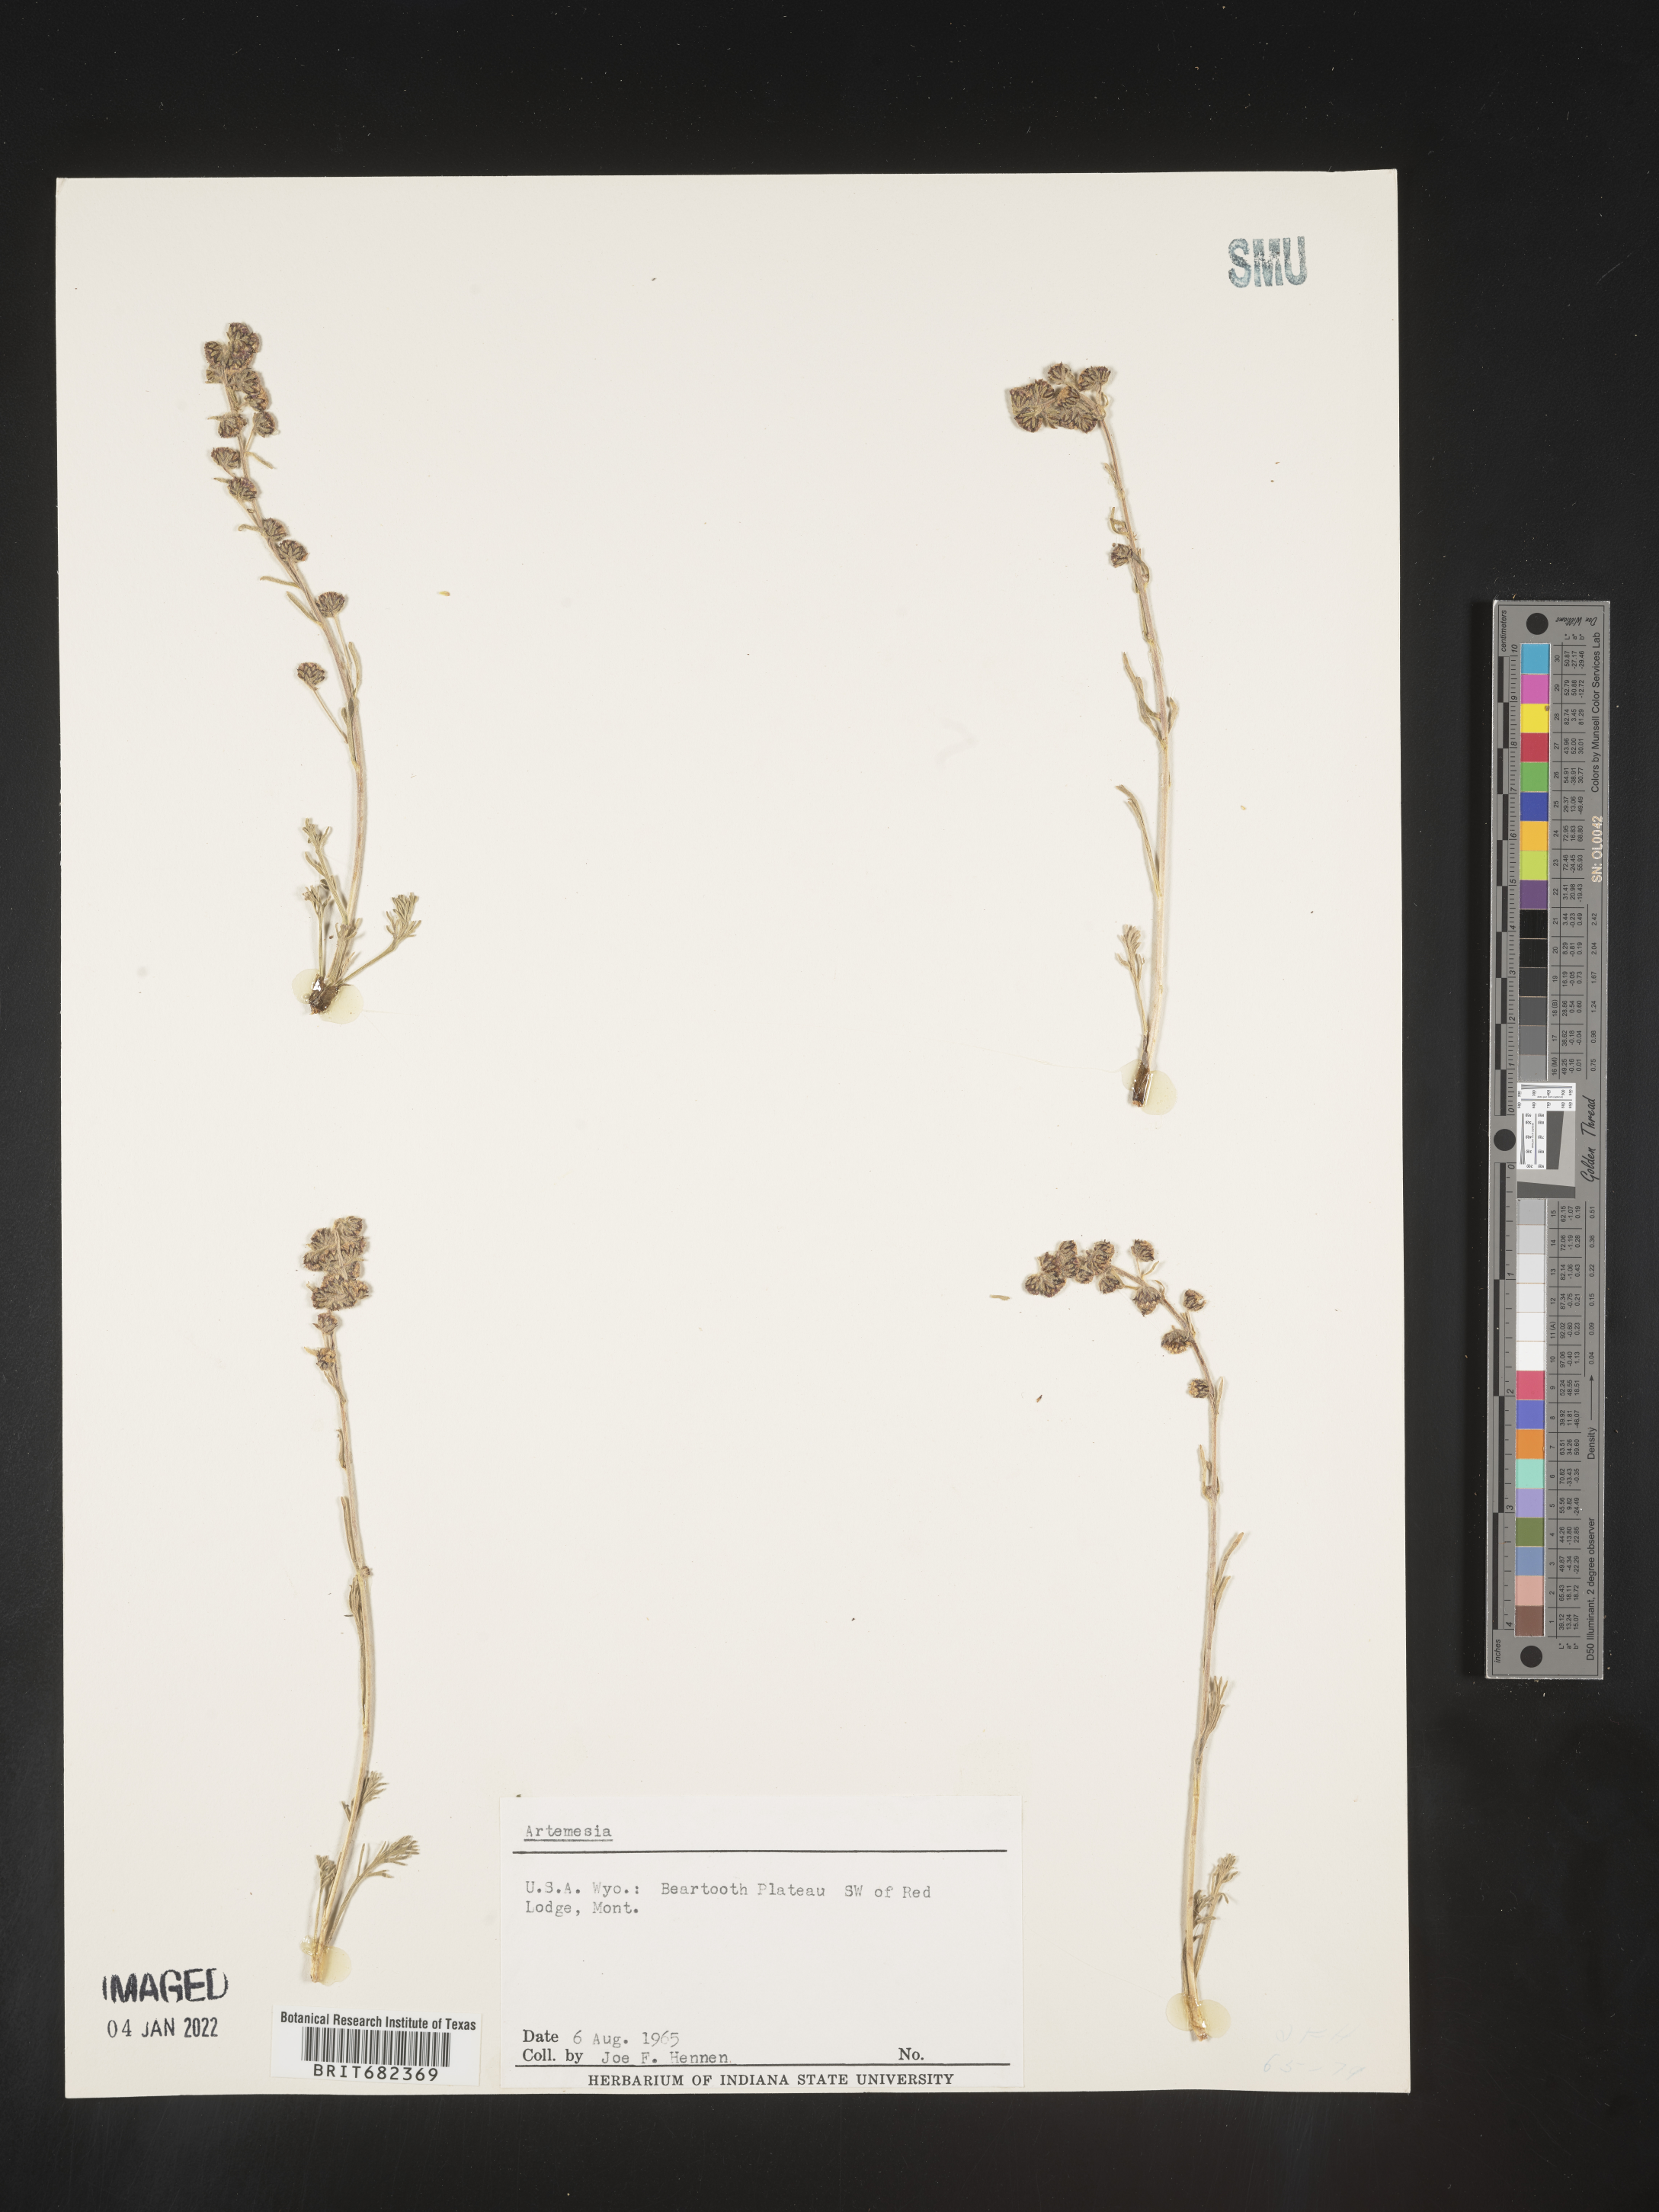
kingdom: Plantae
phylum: Tracheophyta
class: Magnoliopsida
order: Asterales
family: Asteraceae
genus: Artemisia
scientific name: Artemisia
